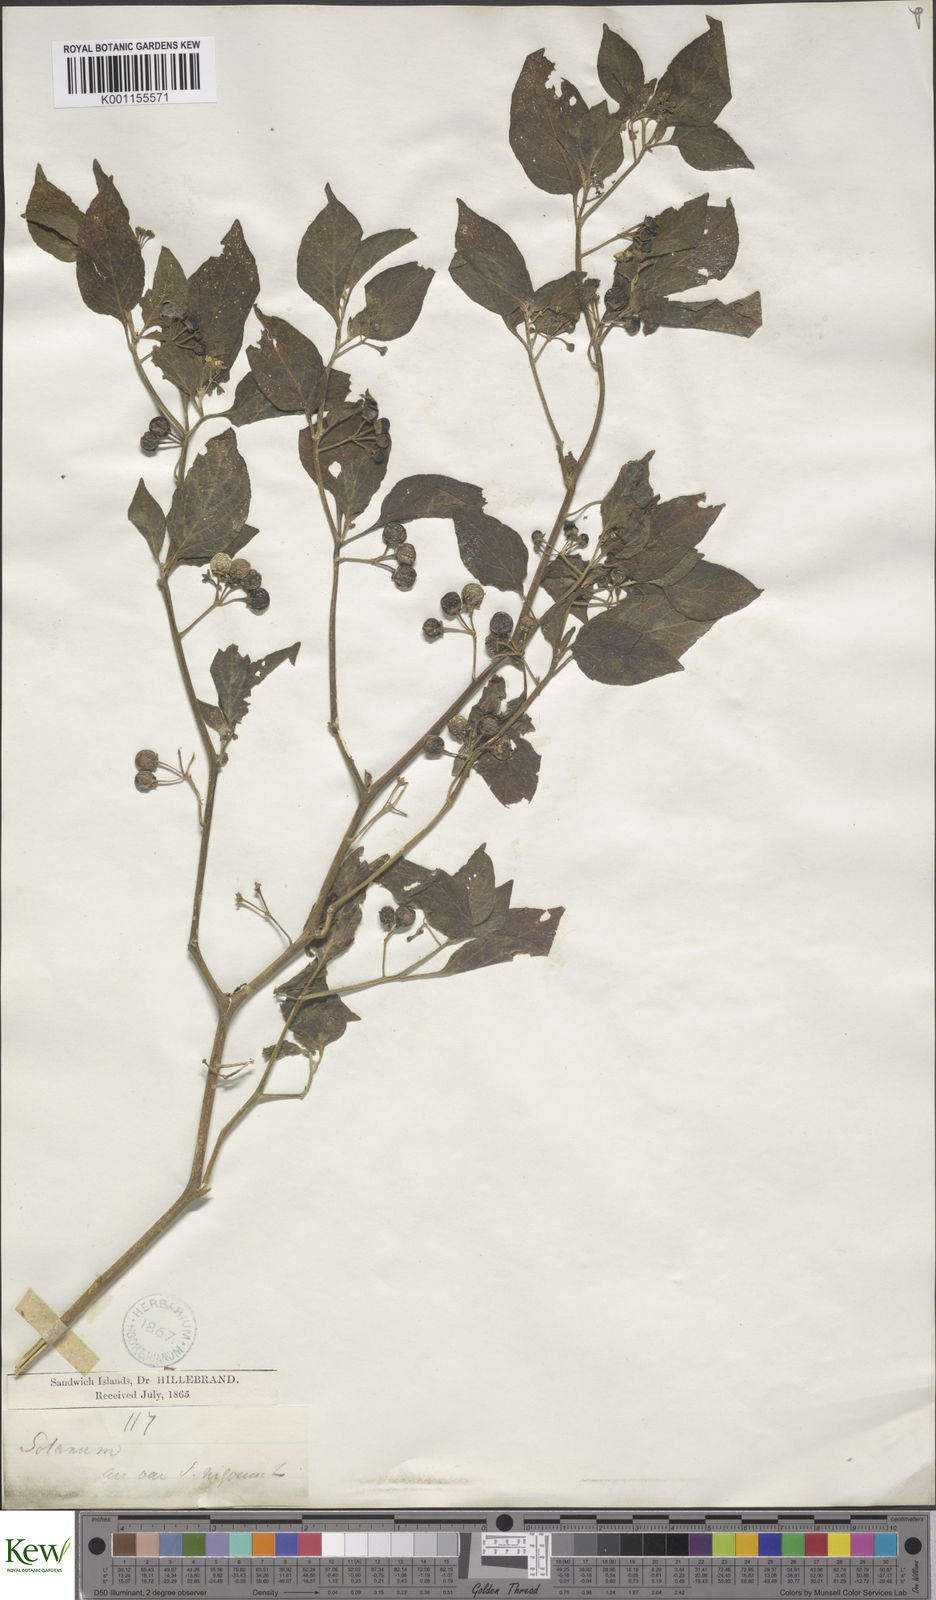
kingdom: Plantae
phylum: Tracheophyta
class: Magnoliopsida
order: Solanales
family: Solanaceae
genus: Solanum
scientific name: Solanum
